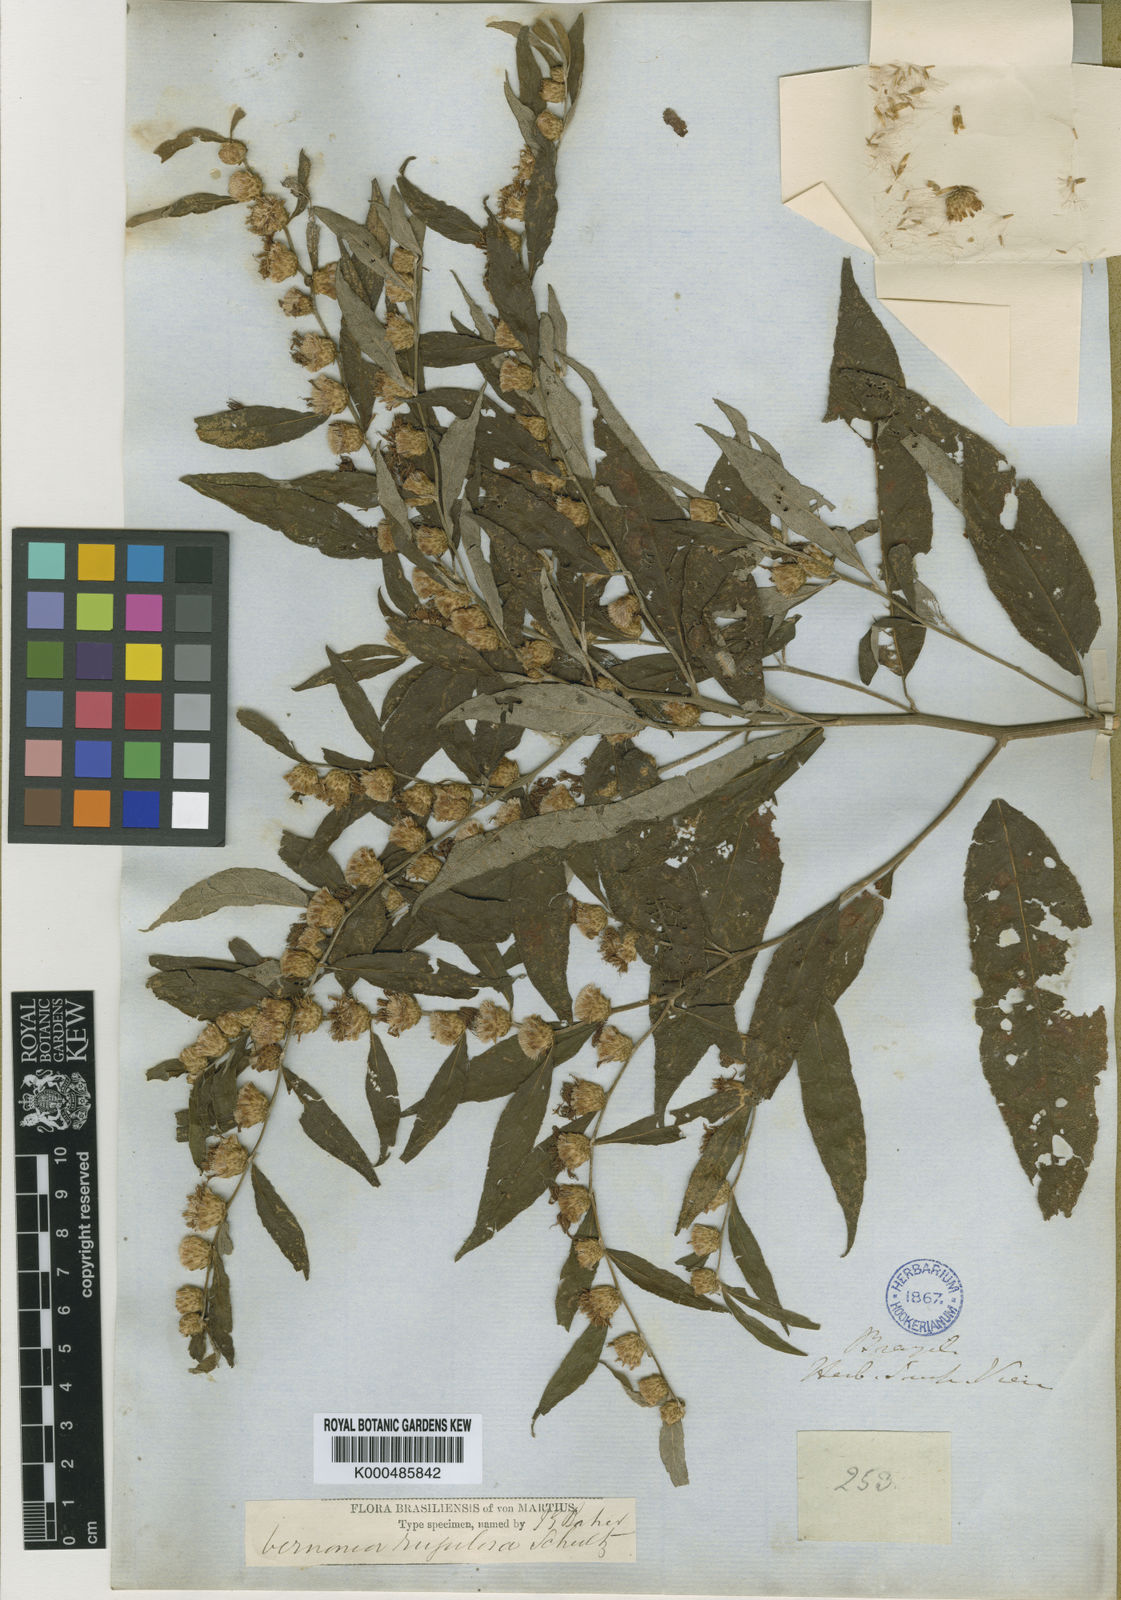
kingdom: Plantae
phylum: Tracheophyta
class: Magnoliopsida
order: Asterales
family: Asteraceae
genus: Lessingianthus
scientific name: Lessingianthus rugulosus
